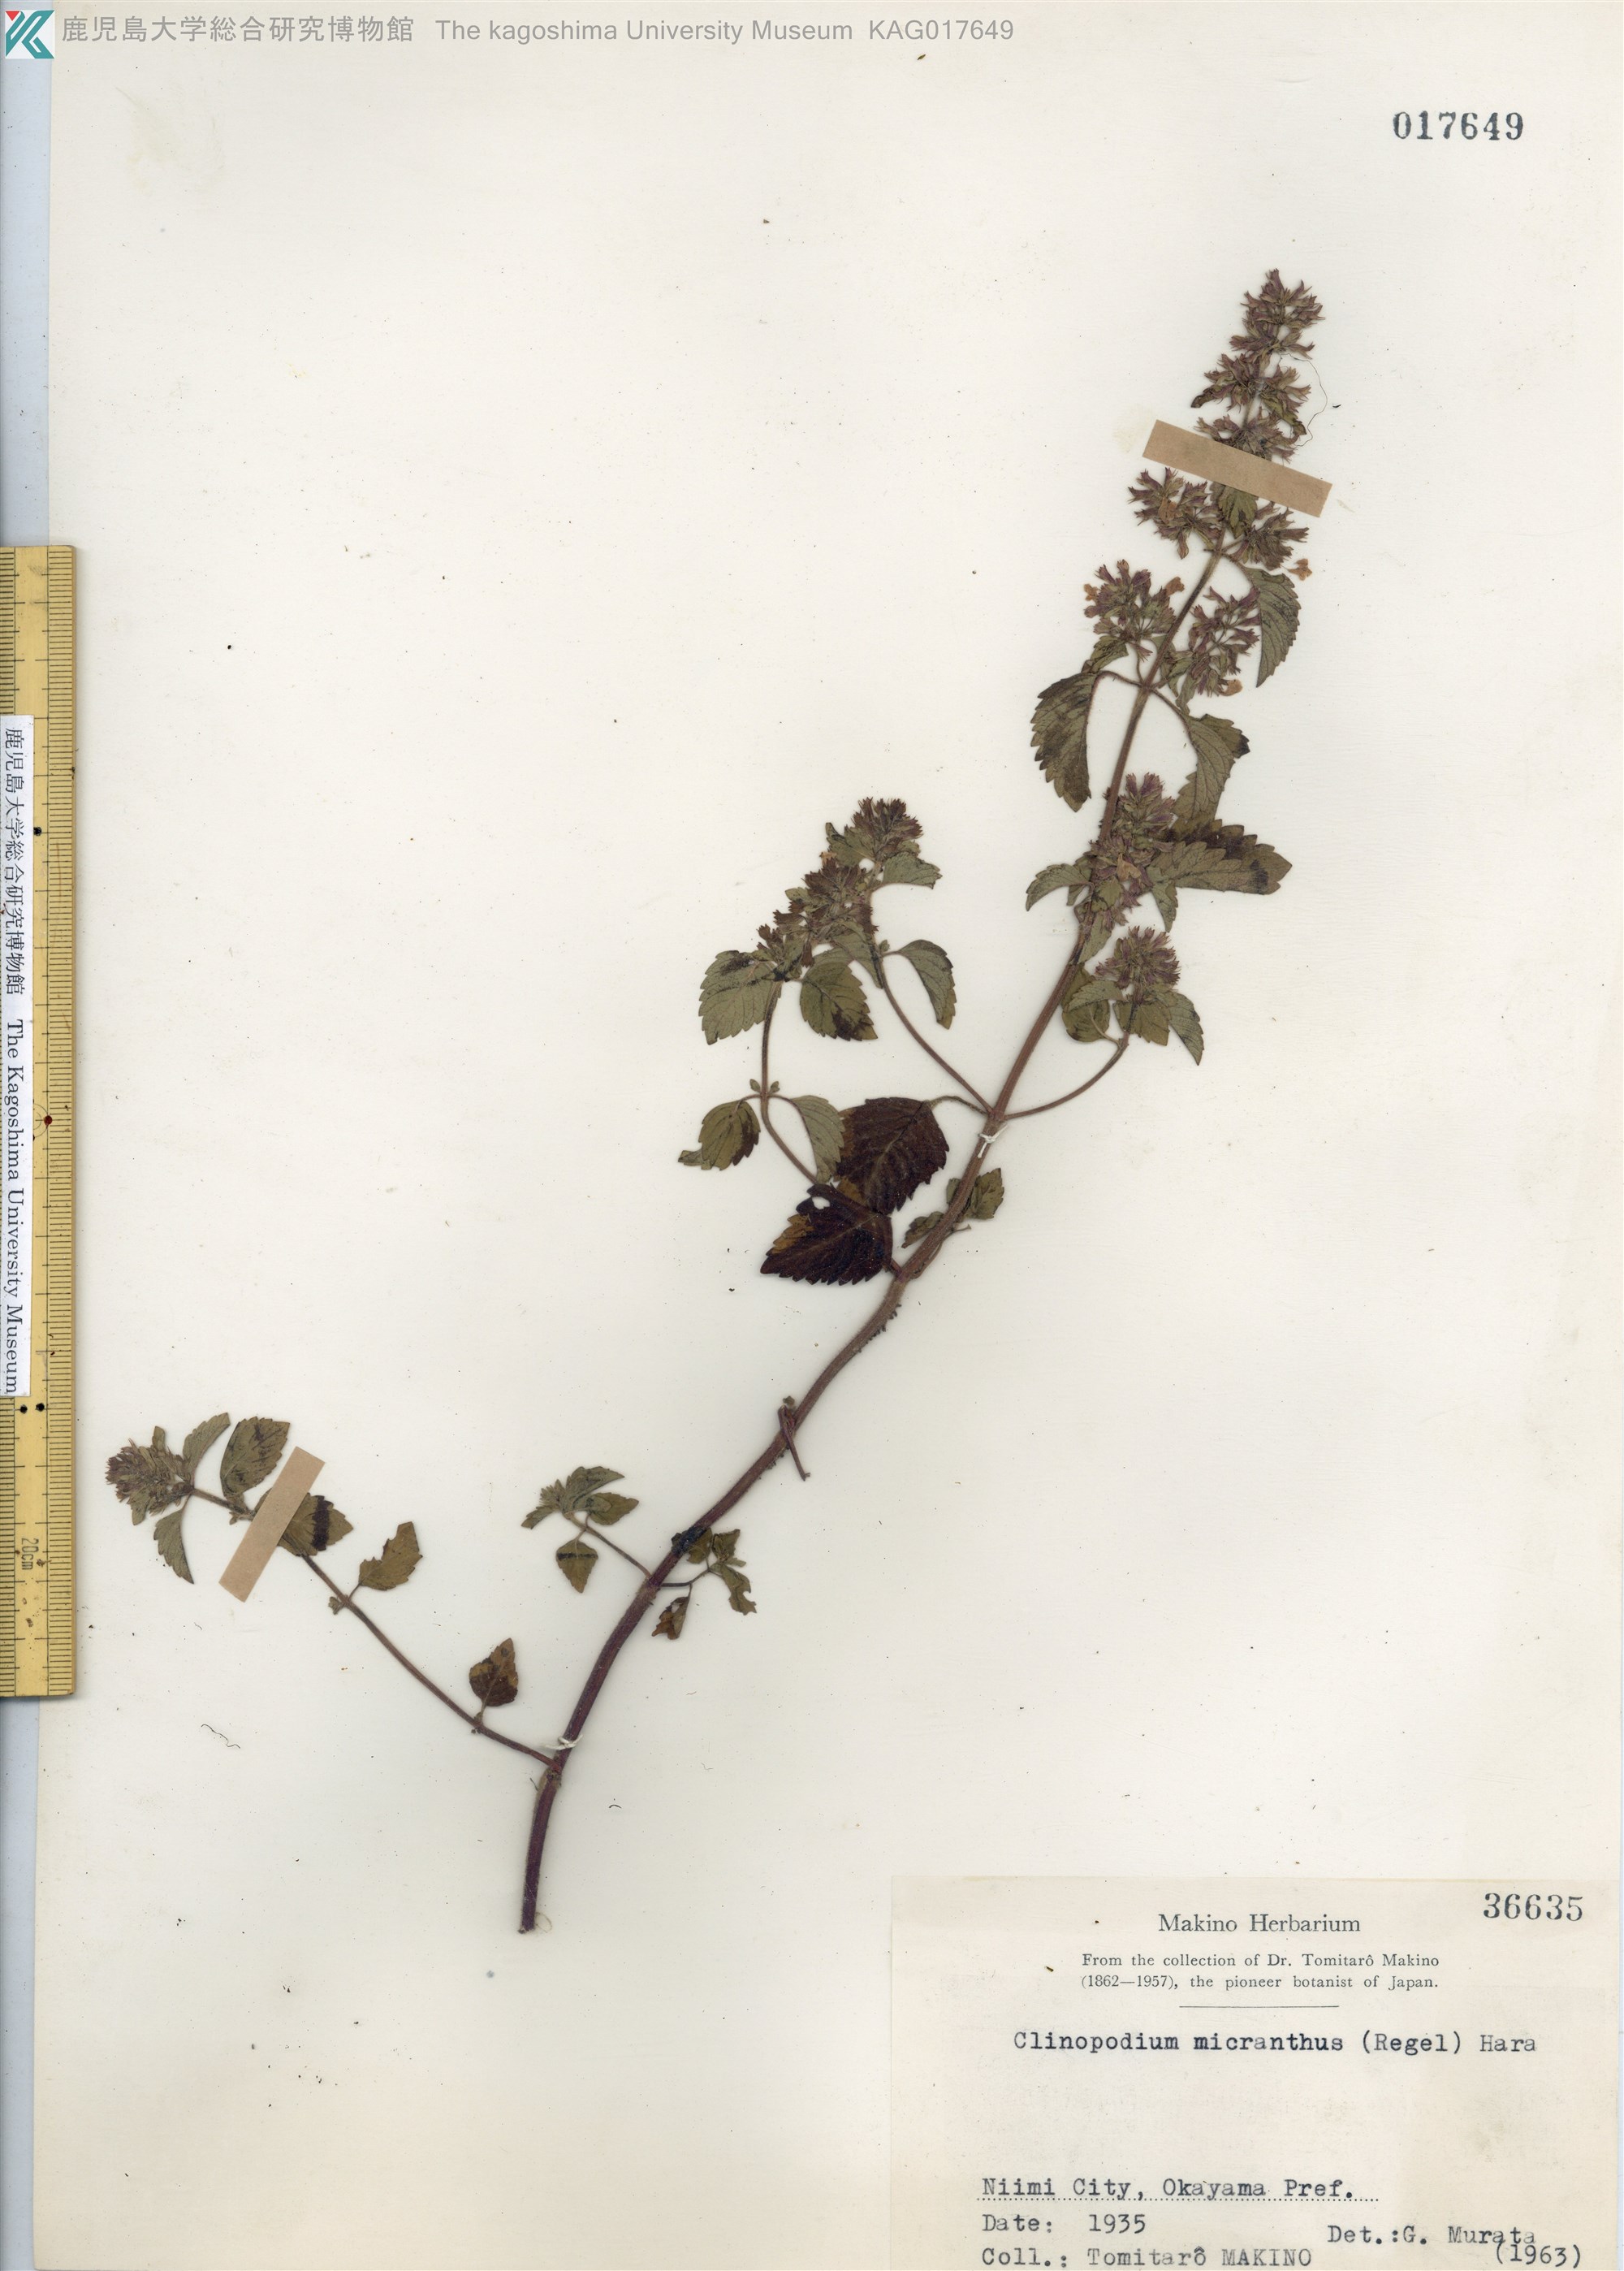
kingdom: Plantae
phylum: Tracheophyta
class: Magnoliopsida
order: Lamiales
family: Lamiaceae
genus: Clinopodium
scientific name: Clinopodium micranthum
